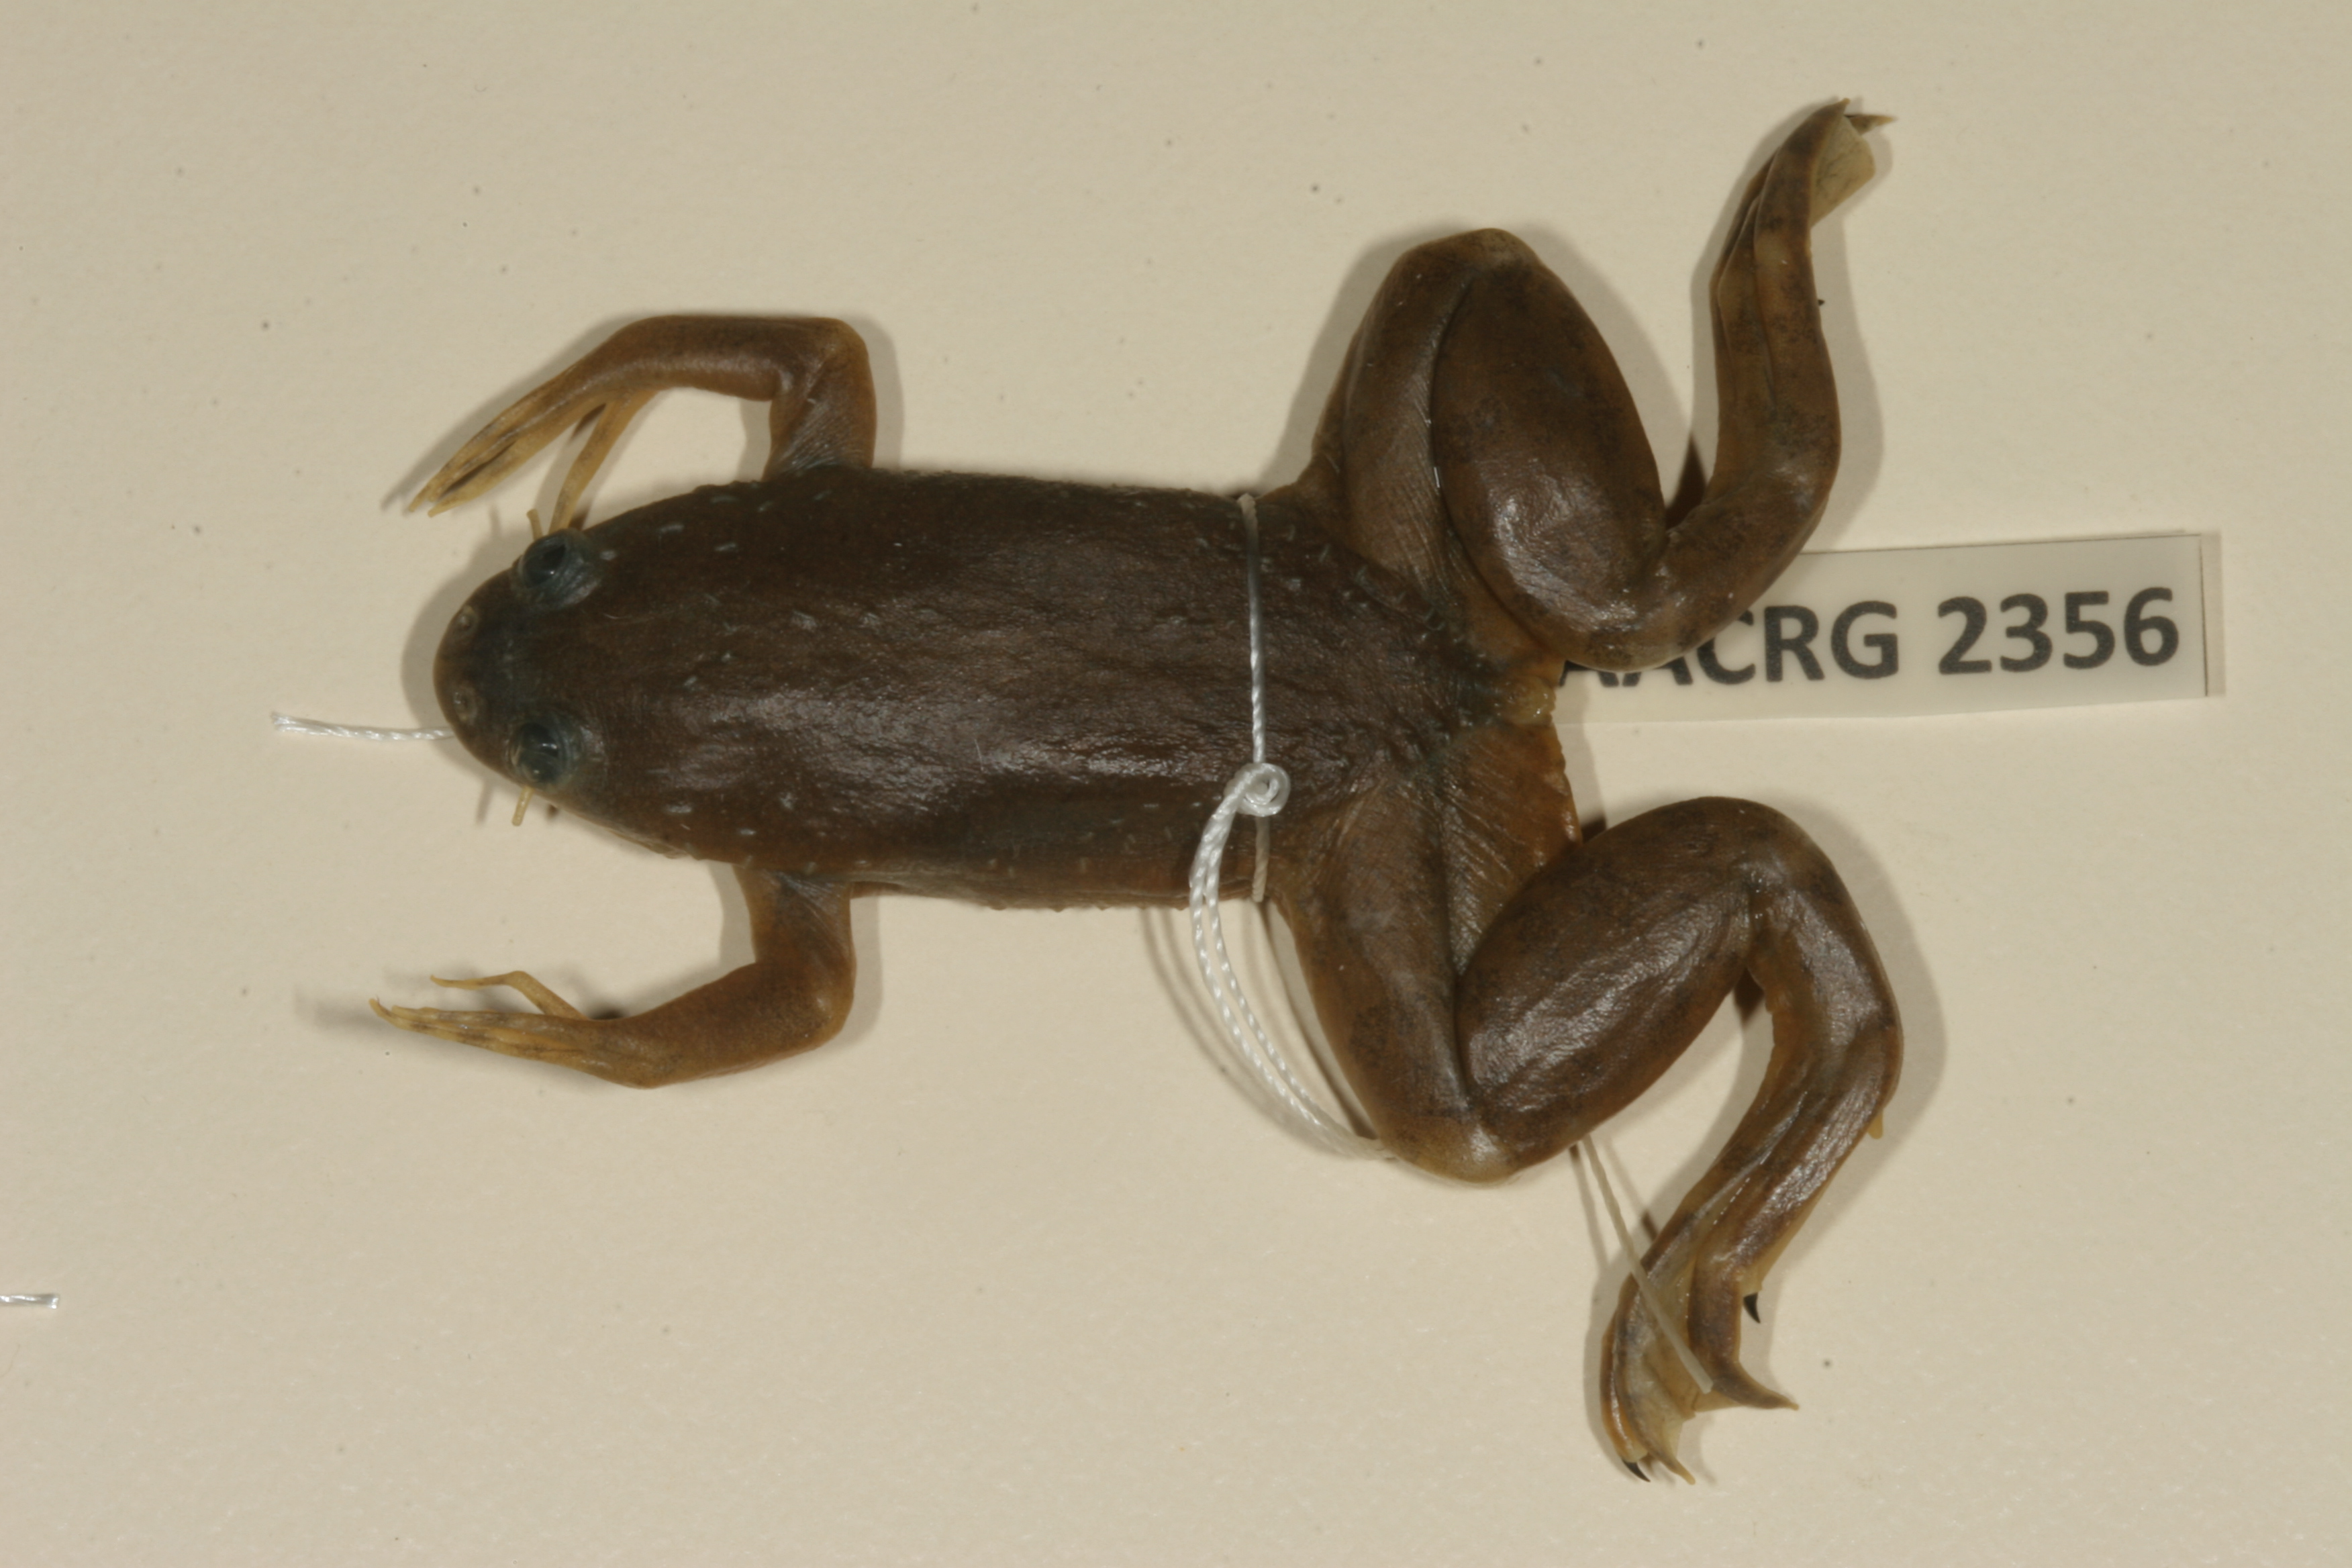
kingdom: Animalia
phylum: Chordata
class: Amphibia
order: Anura
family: Pipidae
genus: Xenopus
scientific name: Xenopus muelleri
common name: Muller's clawed frog
